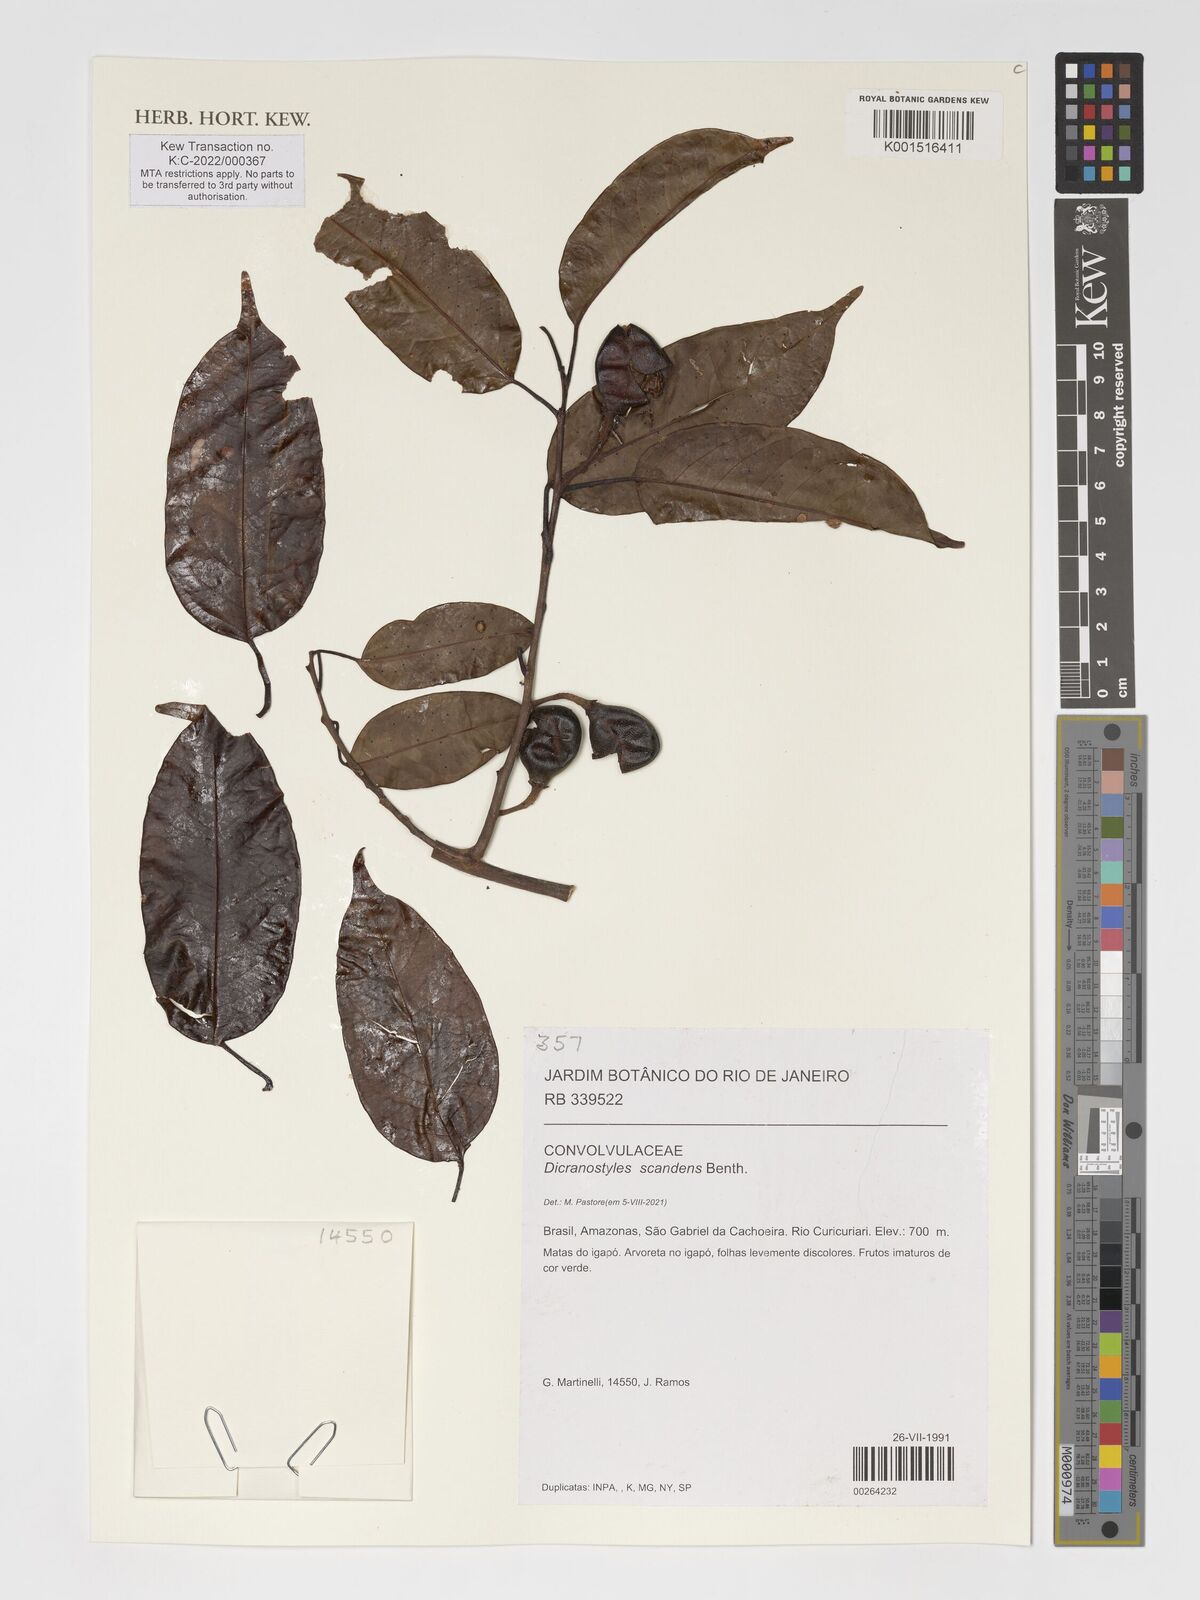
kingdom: Plantae
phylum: Tracheophyta
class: Magnoliopsida
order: Solanales
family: Convolvulaceae
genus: Dicranostyles
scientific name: Dicranostyles scandens
